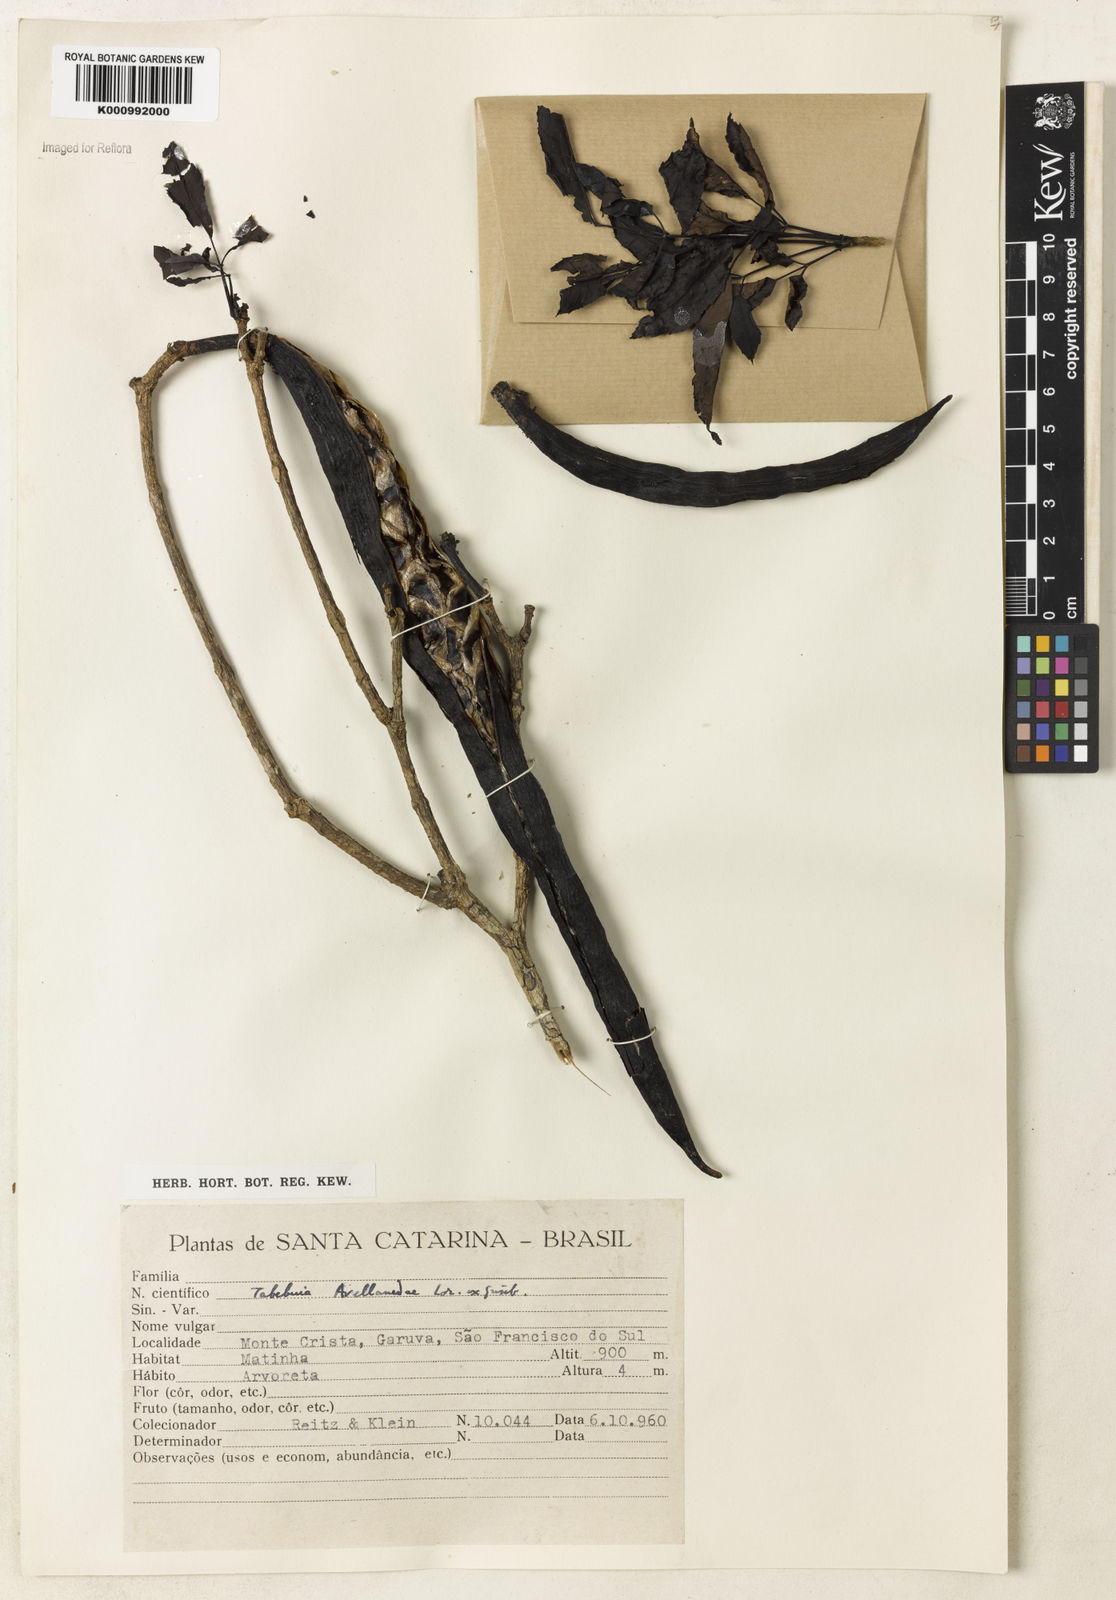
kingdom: Plantae
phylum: Tracheophyta
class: Magnoliopsida
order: Lamiales
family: Bignoniaceae
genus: Handroanthus
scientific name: Handroanthus heptaphyllus
